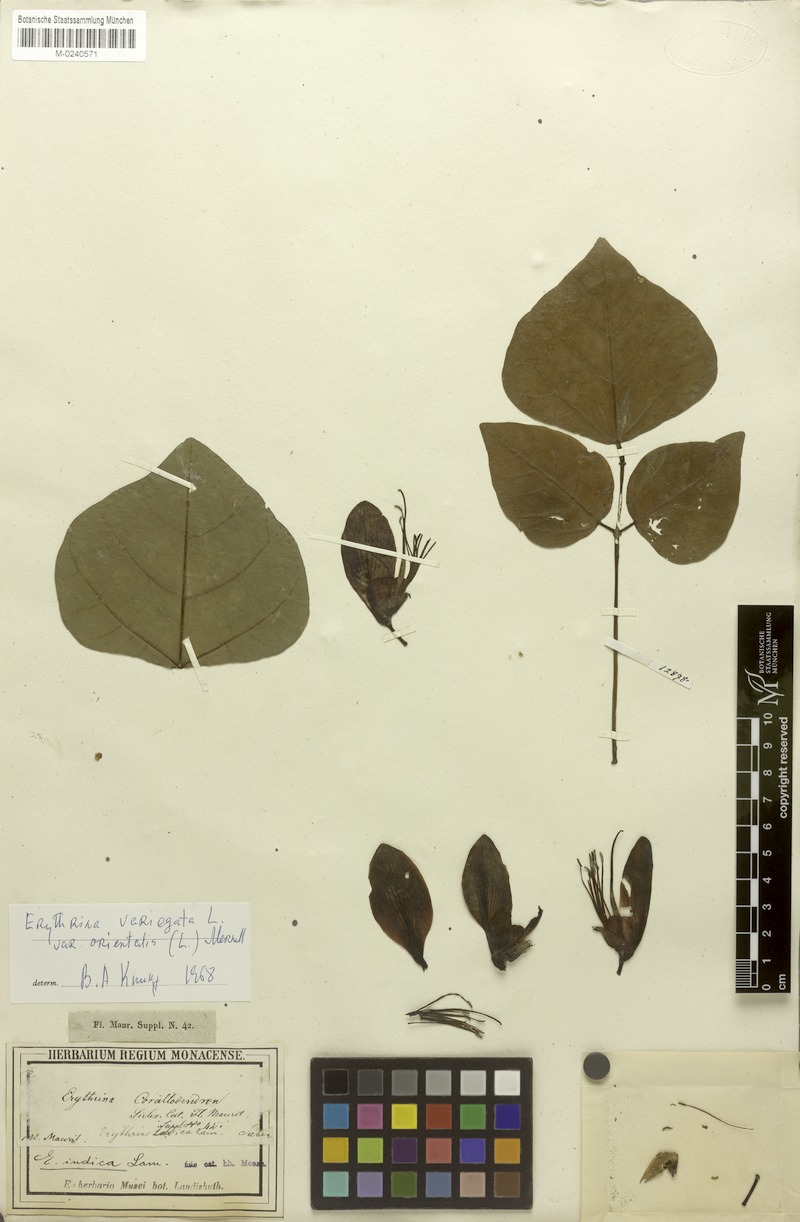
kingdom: Plantae
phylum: Tracheophyta
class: Magnoliopsida
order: Fabales
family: Fabaceae
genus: Erythrina
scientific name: Erythrina variegata
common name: Indian coral tree
